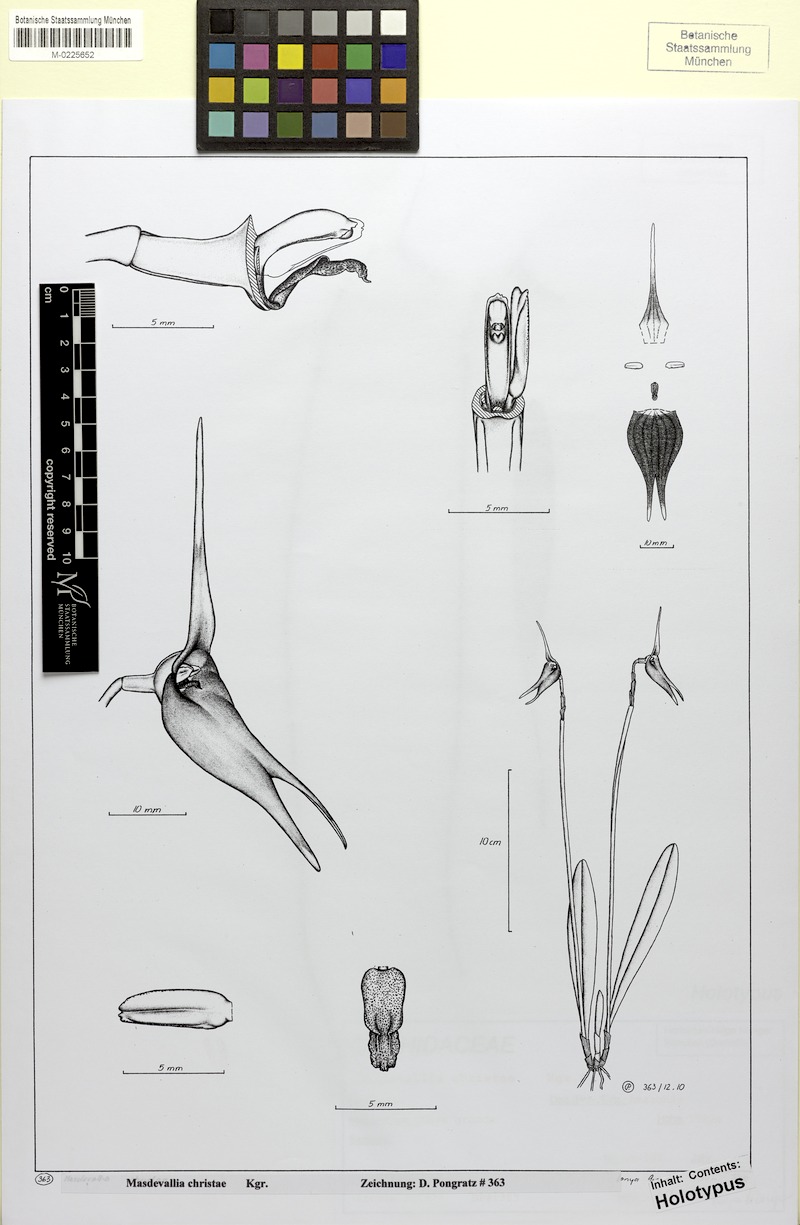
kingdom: Plantae
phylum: Tracheophyta
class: Liliopsida
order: Asparagales
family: Orchidaceae
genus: Masdevallia
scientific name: Masdevallia christae
